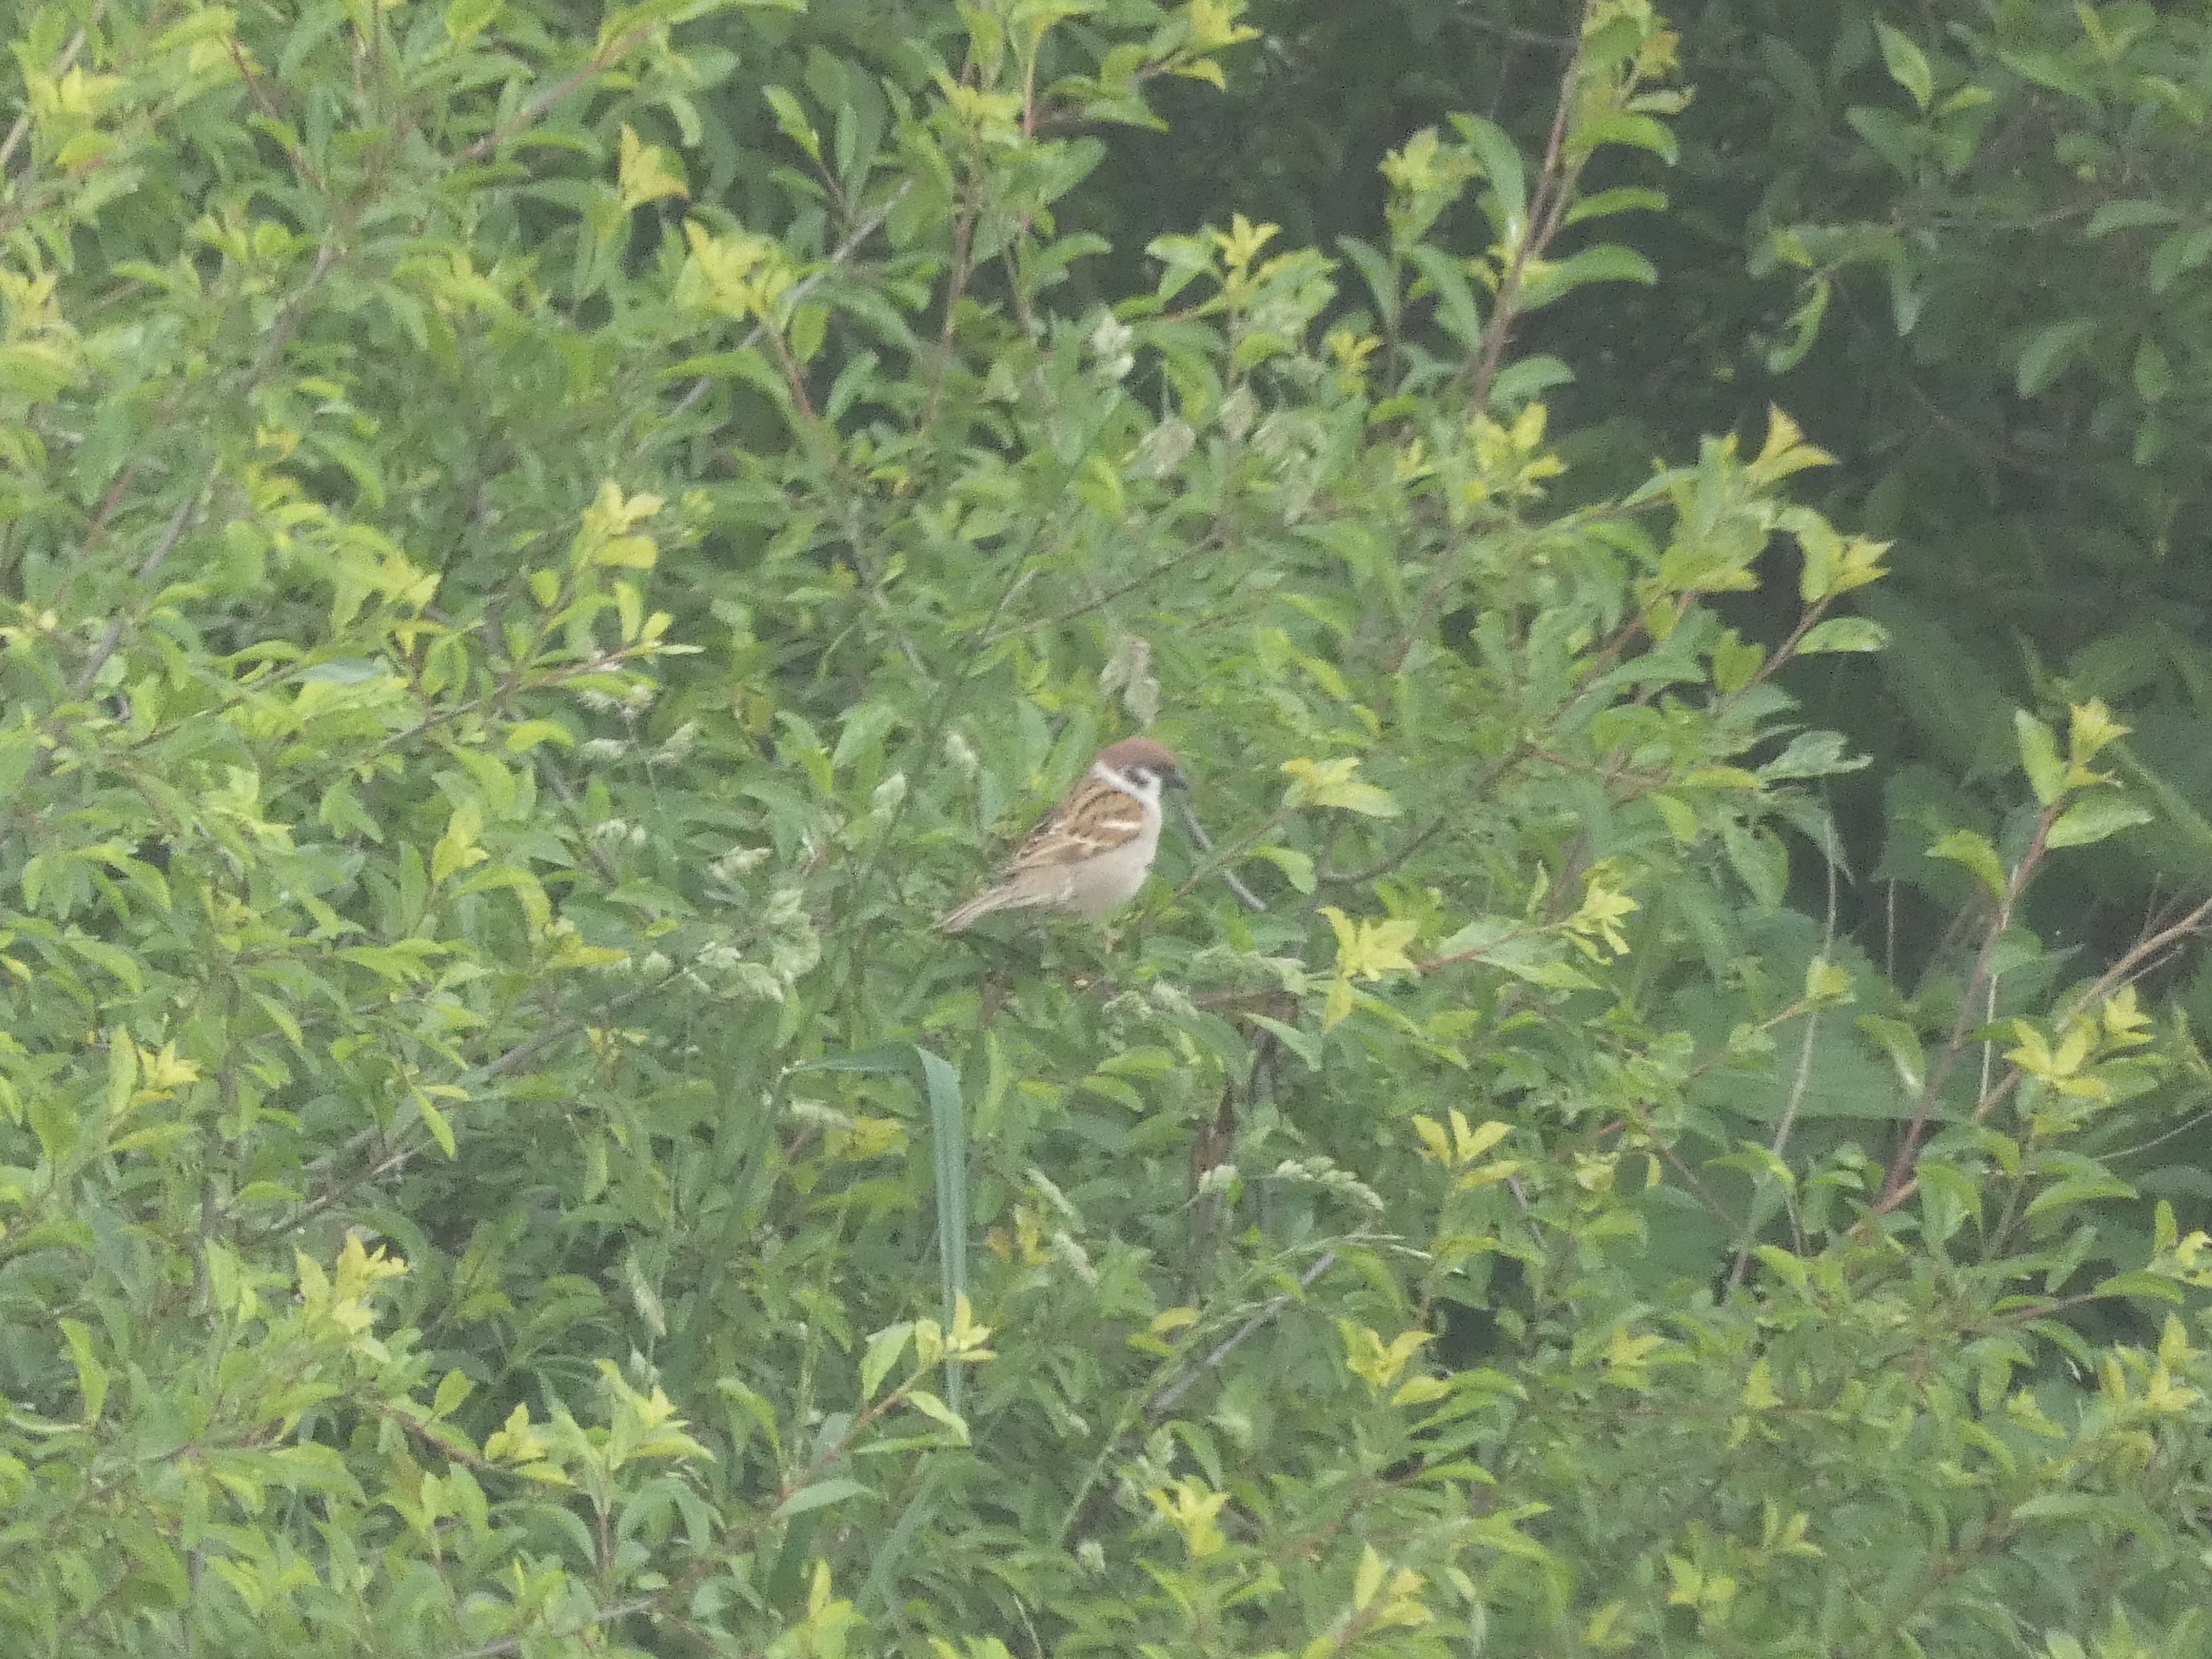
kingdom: Animalia
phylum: Chordata
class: Aves
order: Passeriformes
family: Passeridae
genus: Passer
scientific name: Passer montanus
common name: Skovspurv
